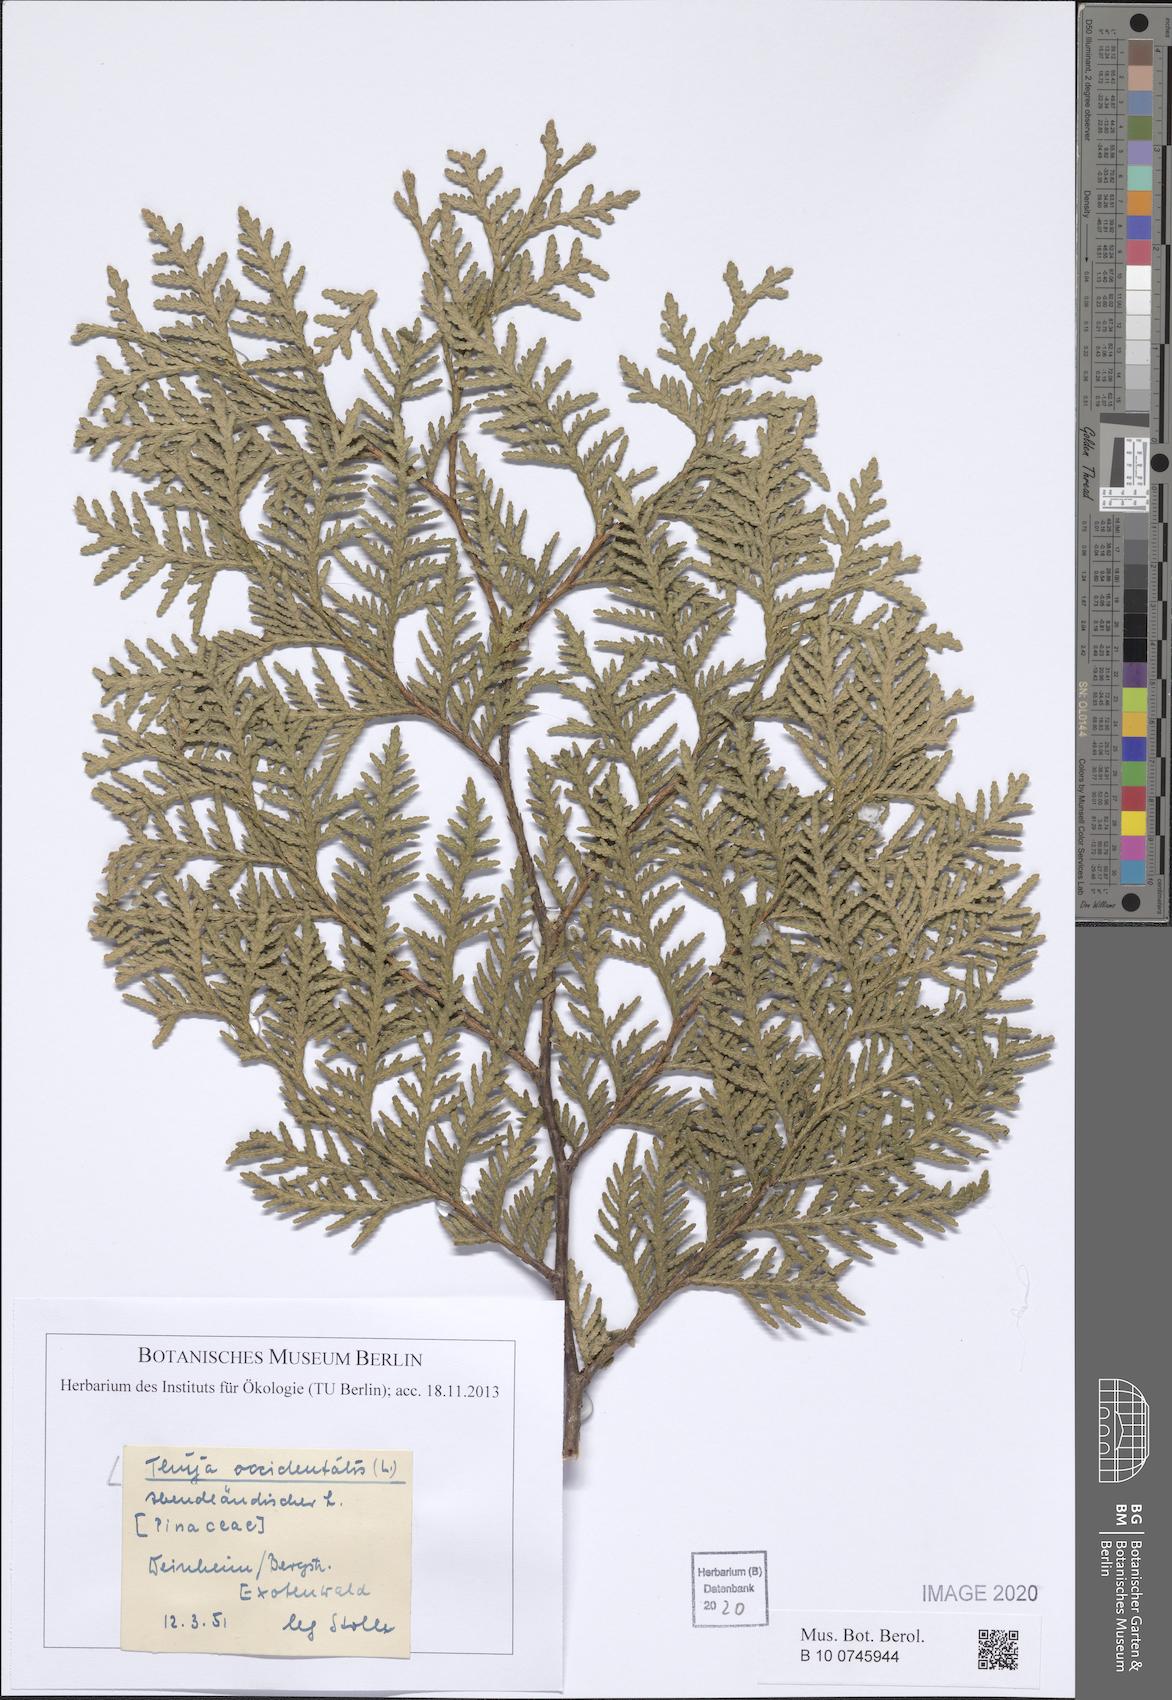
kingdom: Plantae
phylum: Tracheophyta
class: Pinopsida
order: Pinales
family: Cupressaceae
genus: Thuja
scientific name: Thuja occidentalis
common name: Northern white-cedar
